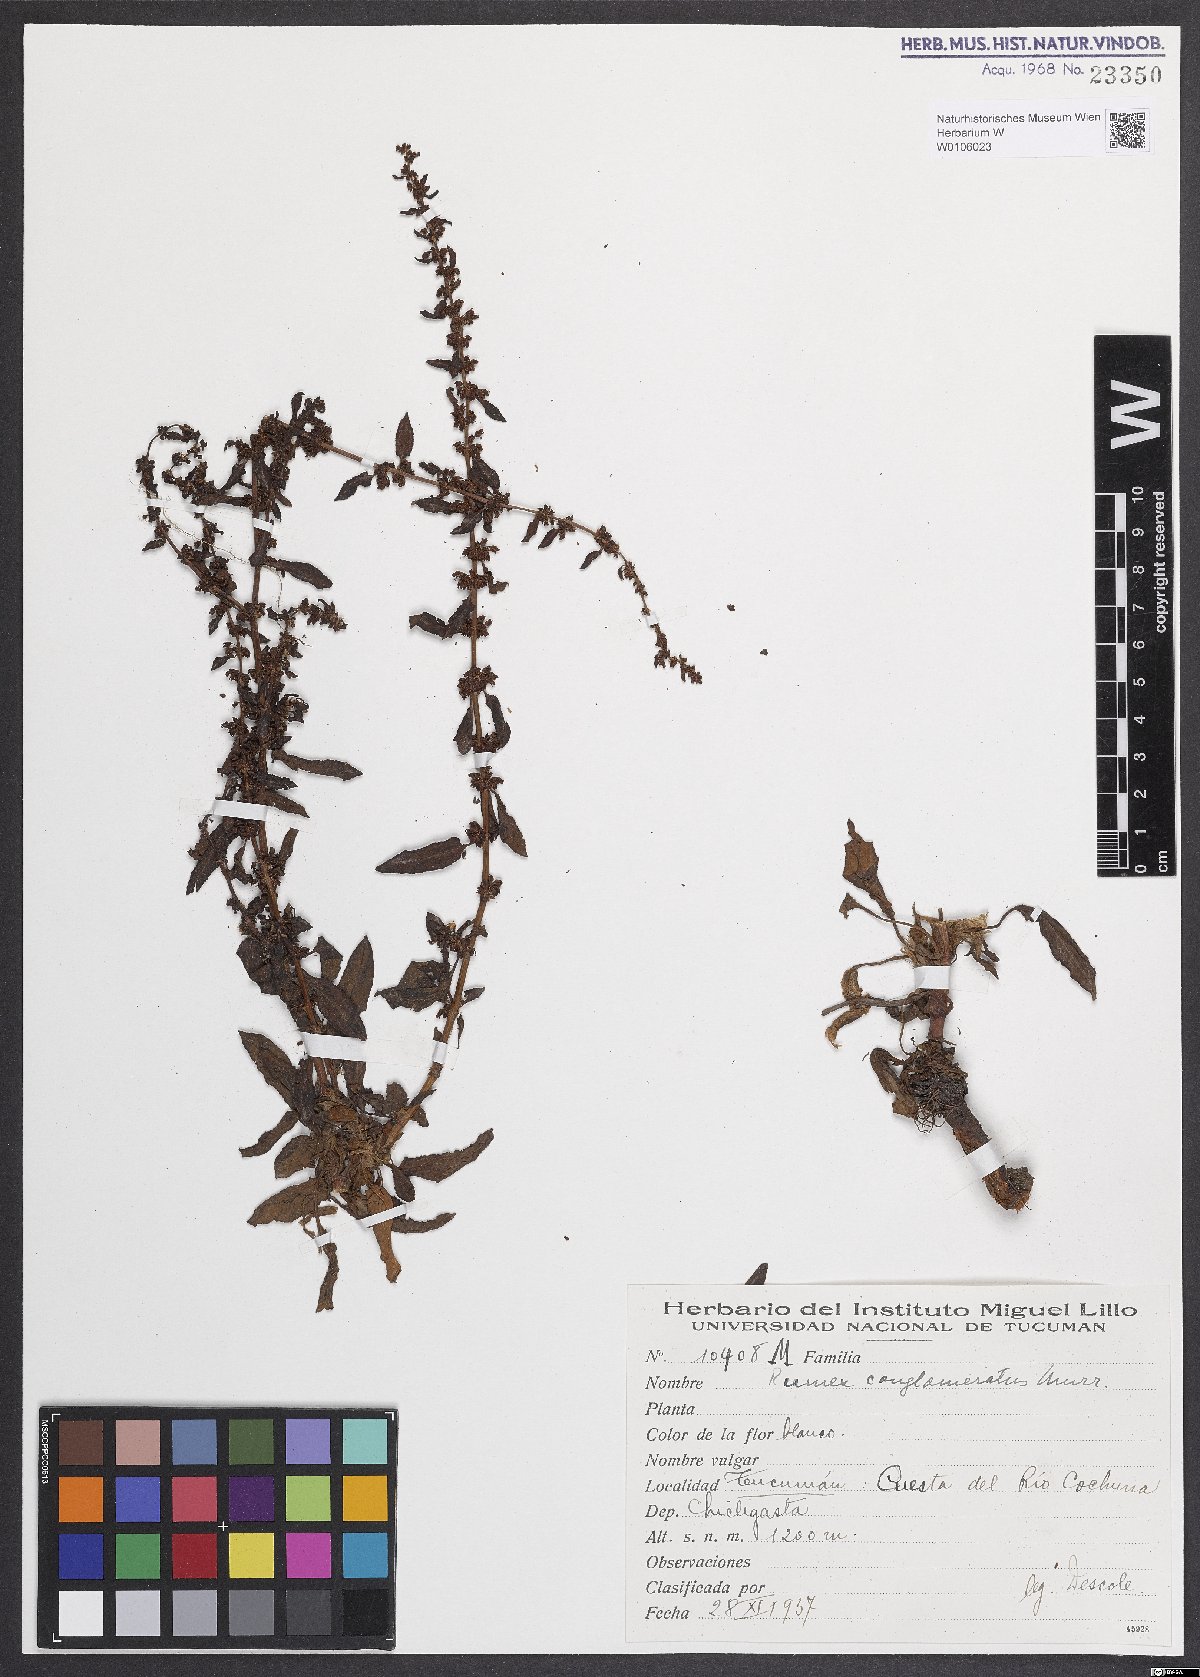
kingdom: Plantae
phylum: Tracheophyta
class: Magnoliopsida
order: Caryophyllales
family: Polygonaceae
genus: Rumex
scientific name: Rumex conglomeratus
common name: Clustered dock
